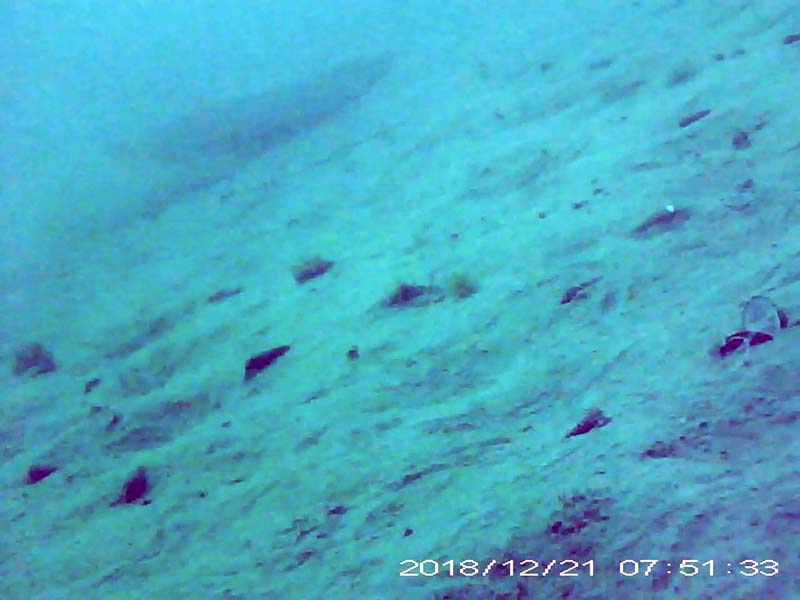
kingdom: Animalia
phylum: Chordata
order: Siluriformes
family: Siluridae
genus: Silurus
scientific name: Silurus
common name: ナマズ
